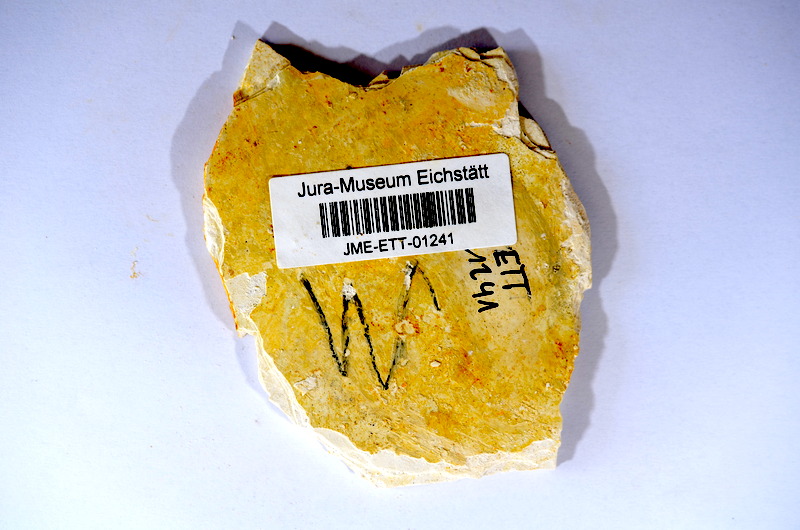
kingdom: Animalia
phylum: Chordata
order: Salmoniformes
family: Orthogonikleithridae
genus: Orthogonikleithrus
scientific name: Orthogonikleithrus hoelli
